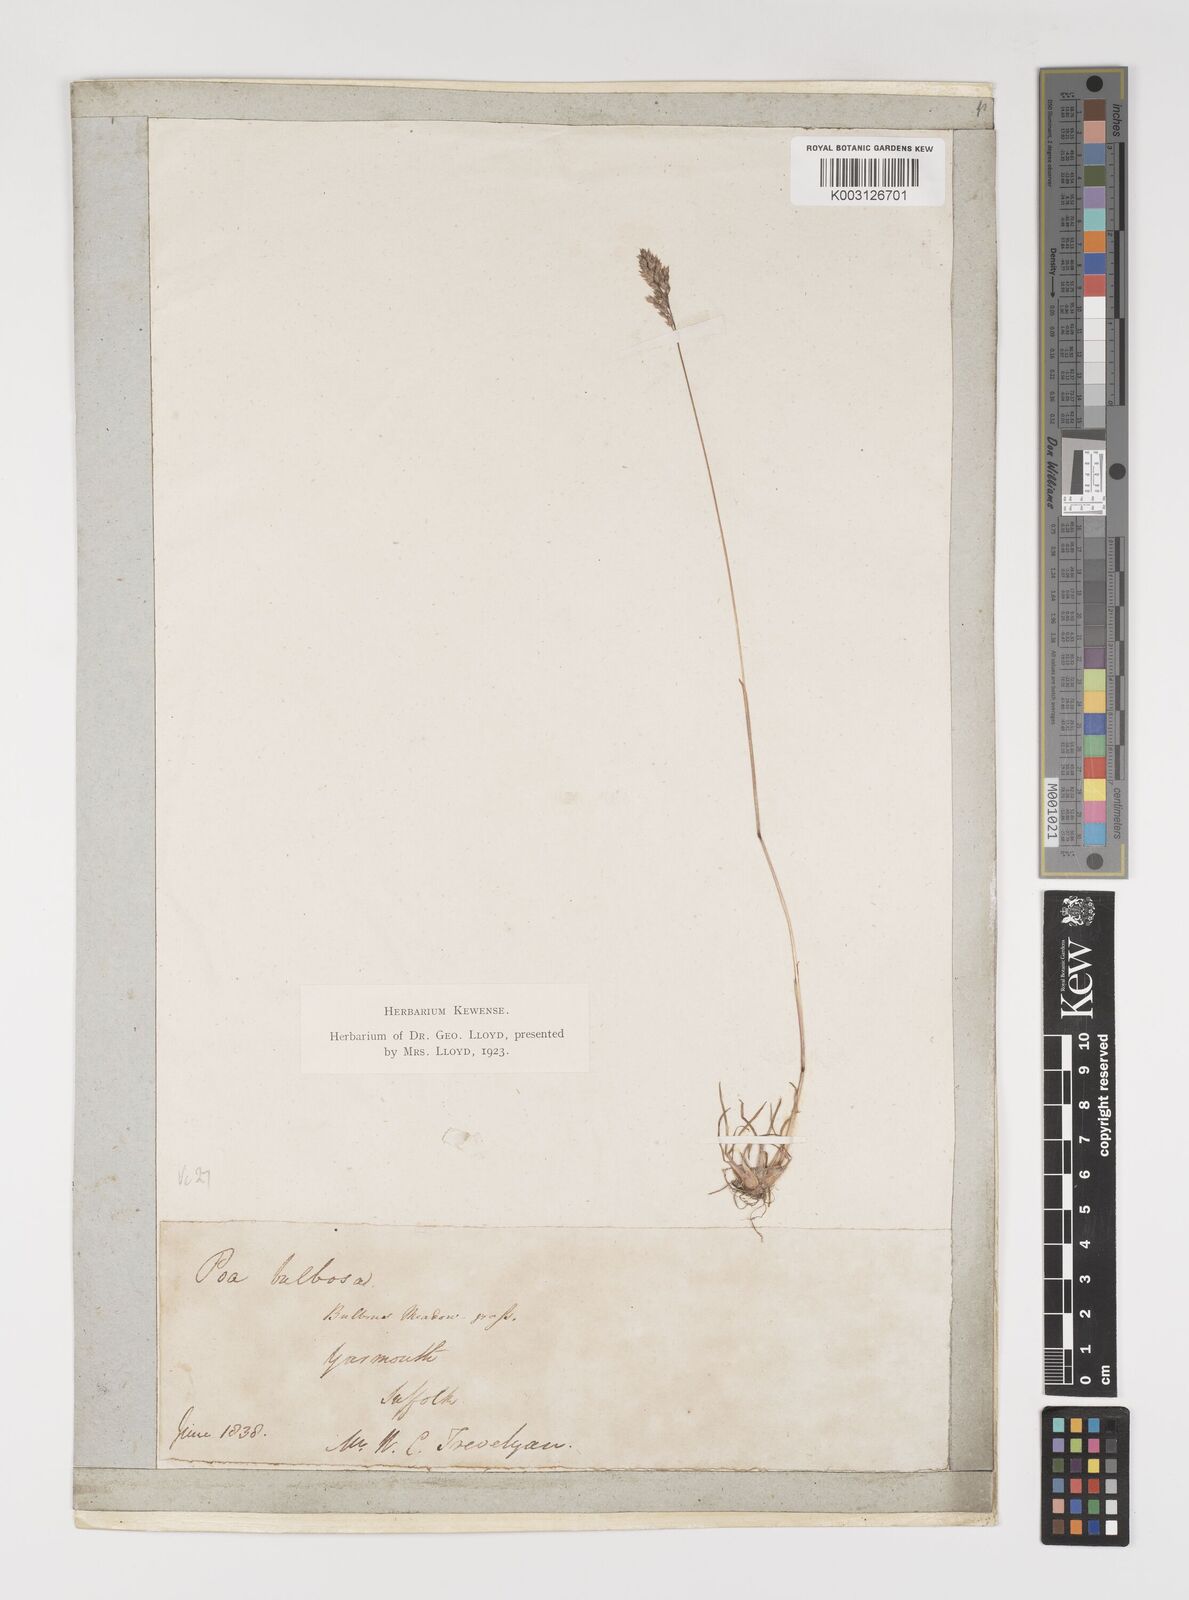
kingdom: Plantae
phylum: Tracheophyta
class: Liliopsida
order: Poales
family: Poaceae
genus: Poa
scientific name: Poa bulbosa
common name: Bulbous bluegrass
